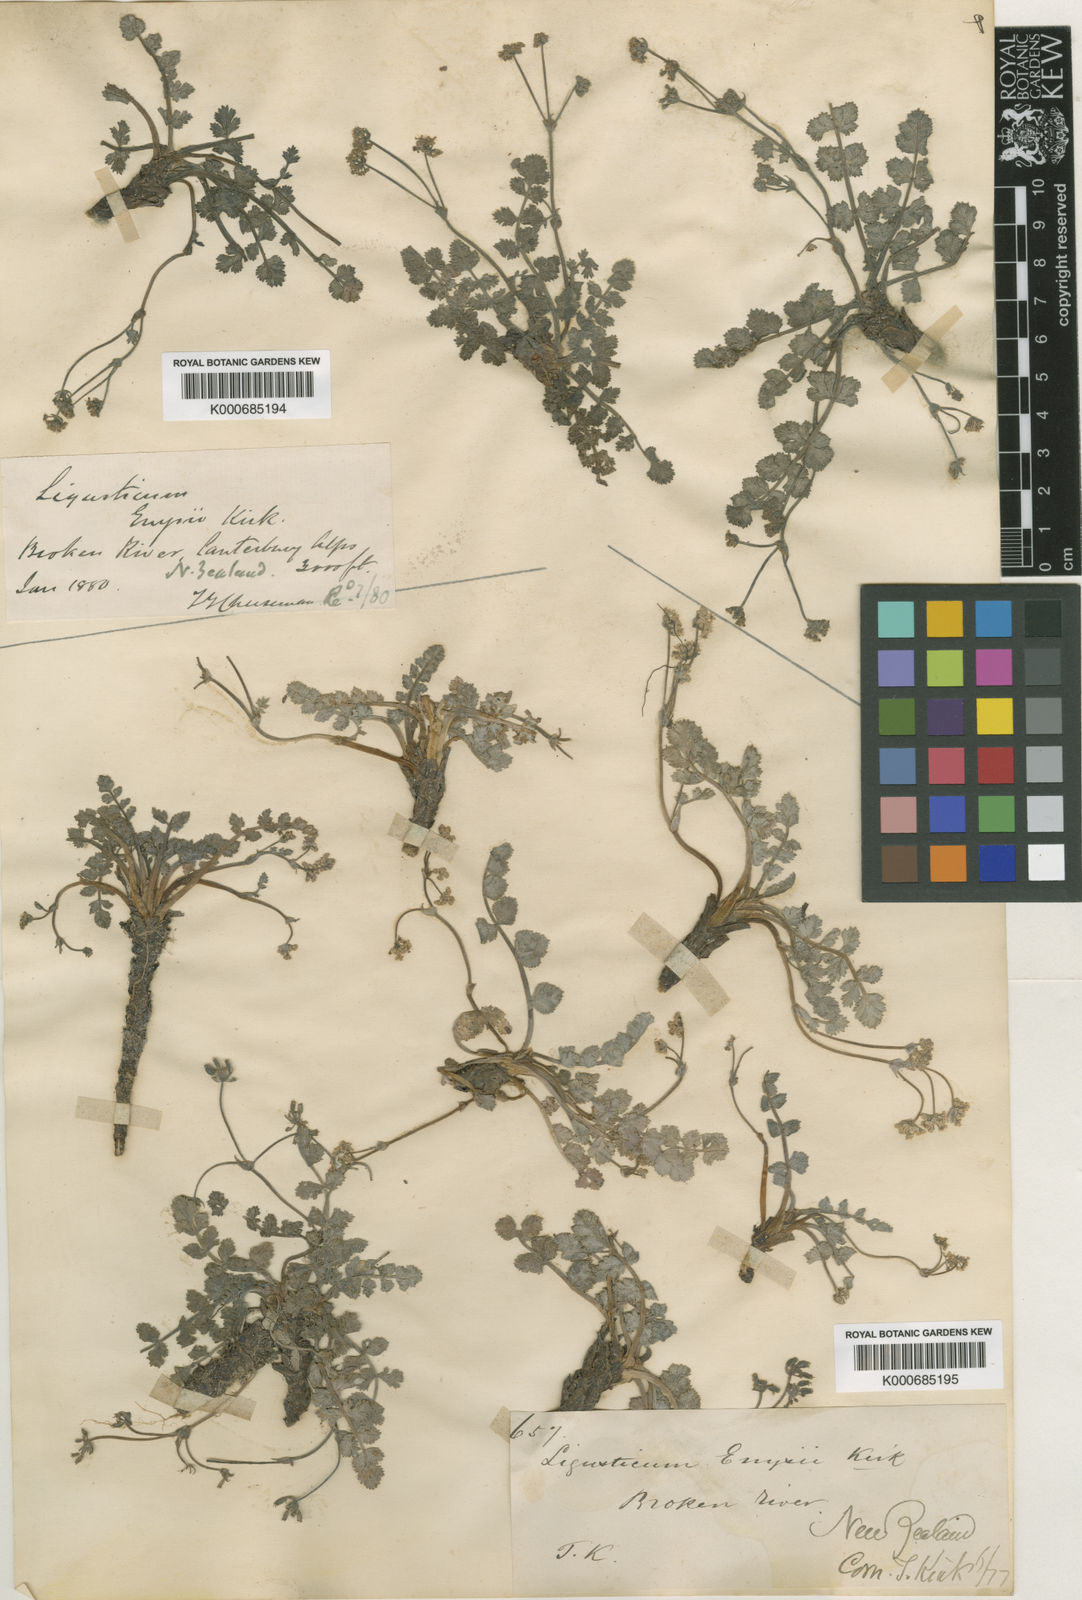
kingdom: Plantae
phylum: Tracheophyta
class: Magnoliopsida
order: Apiales
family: Apiaceae
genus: Gingidia
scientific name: Gingidia enysii
